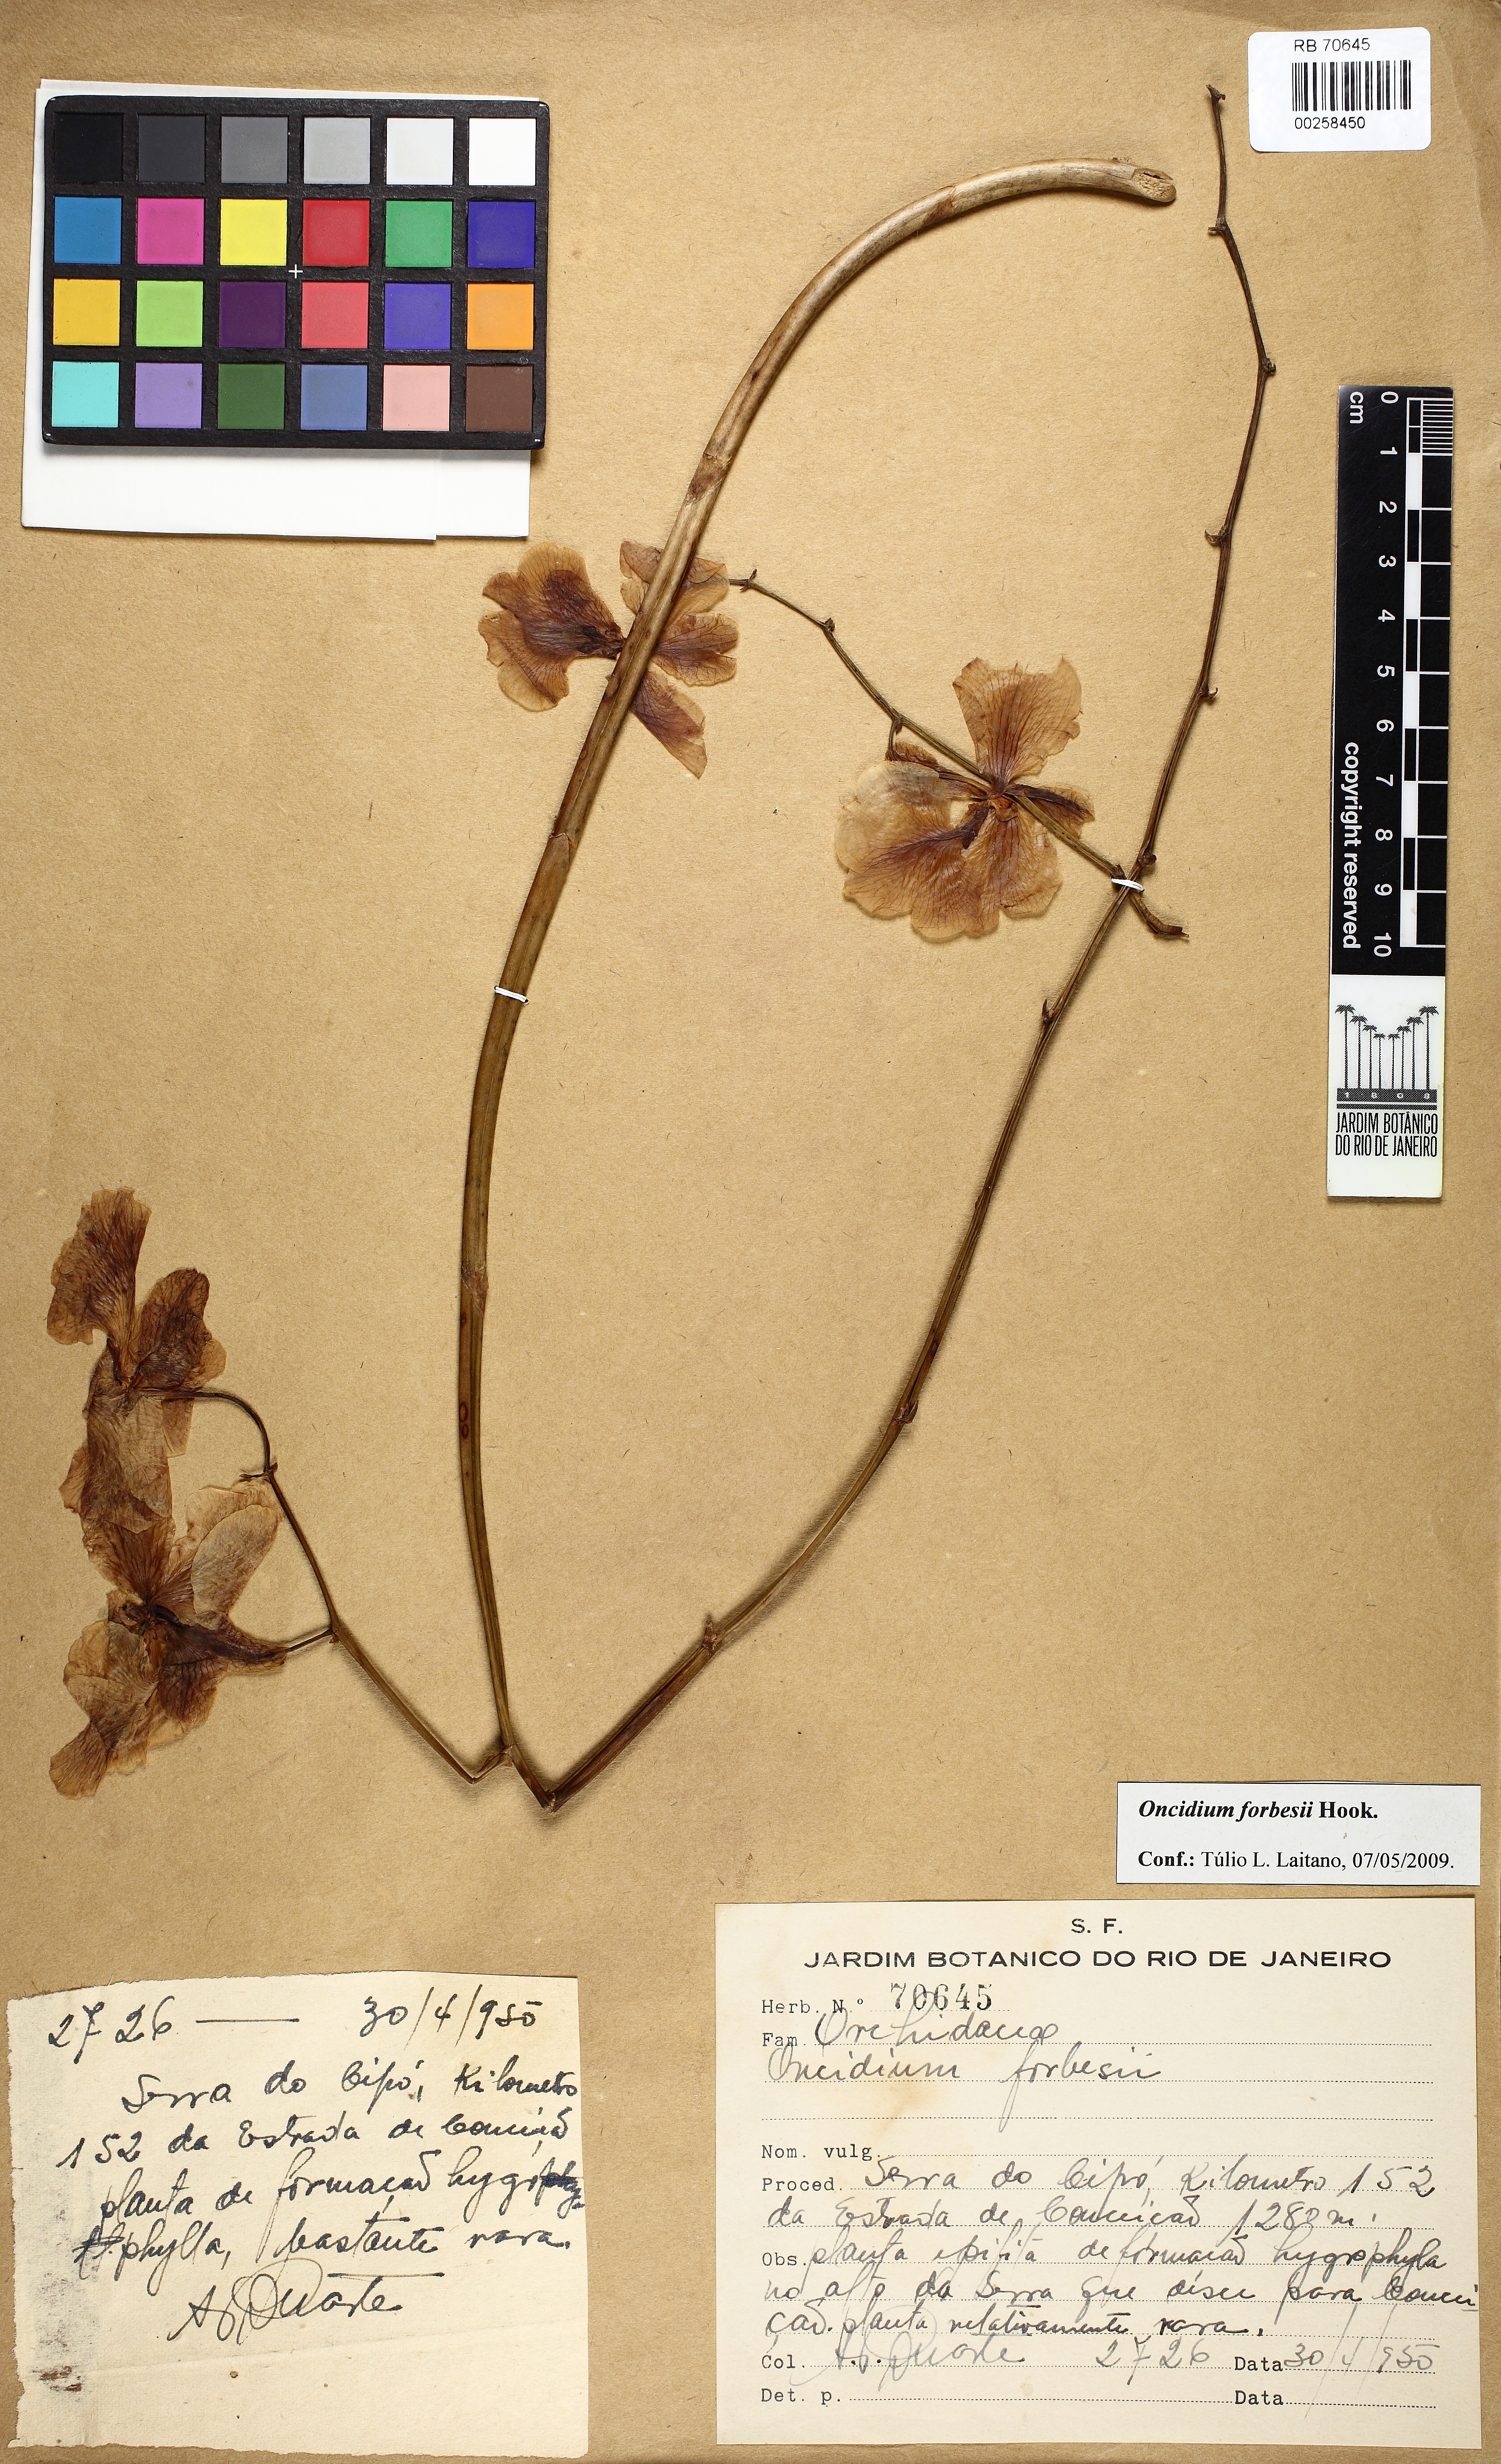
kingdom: Plantae
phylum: Tracheophyta
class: Liliopsida
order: Asparagales
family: Orchidaceae
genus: Gomesa
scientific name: Gomesa forbesii
